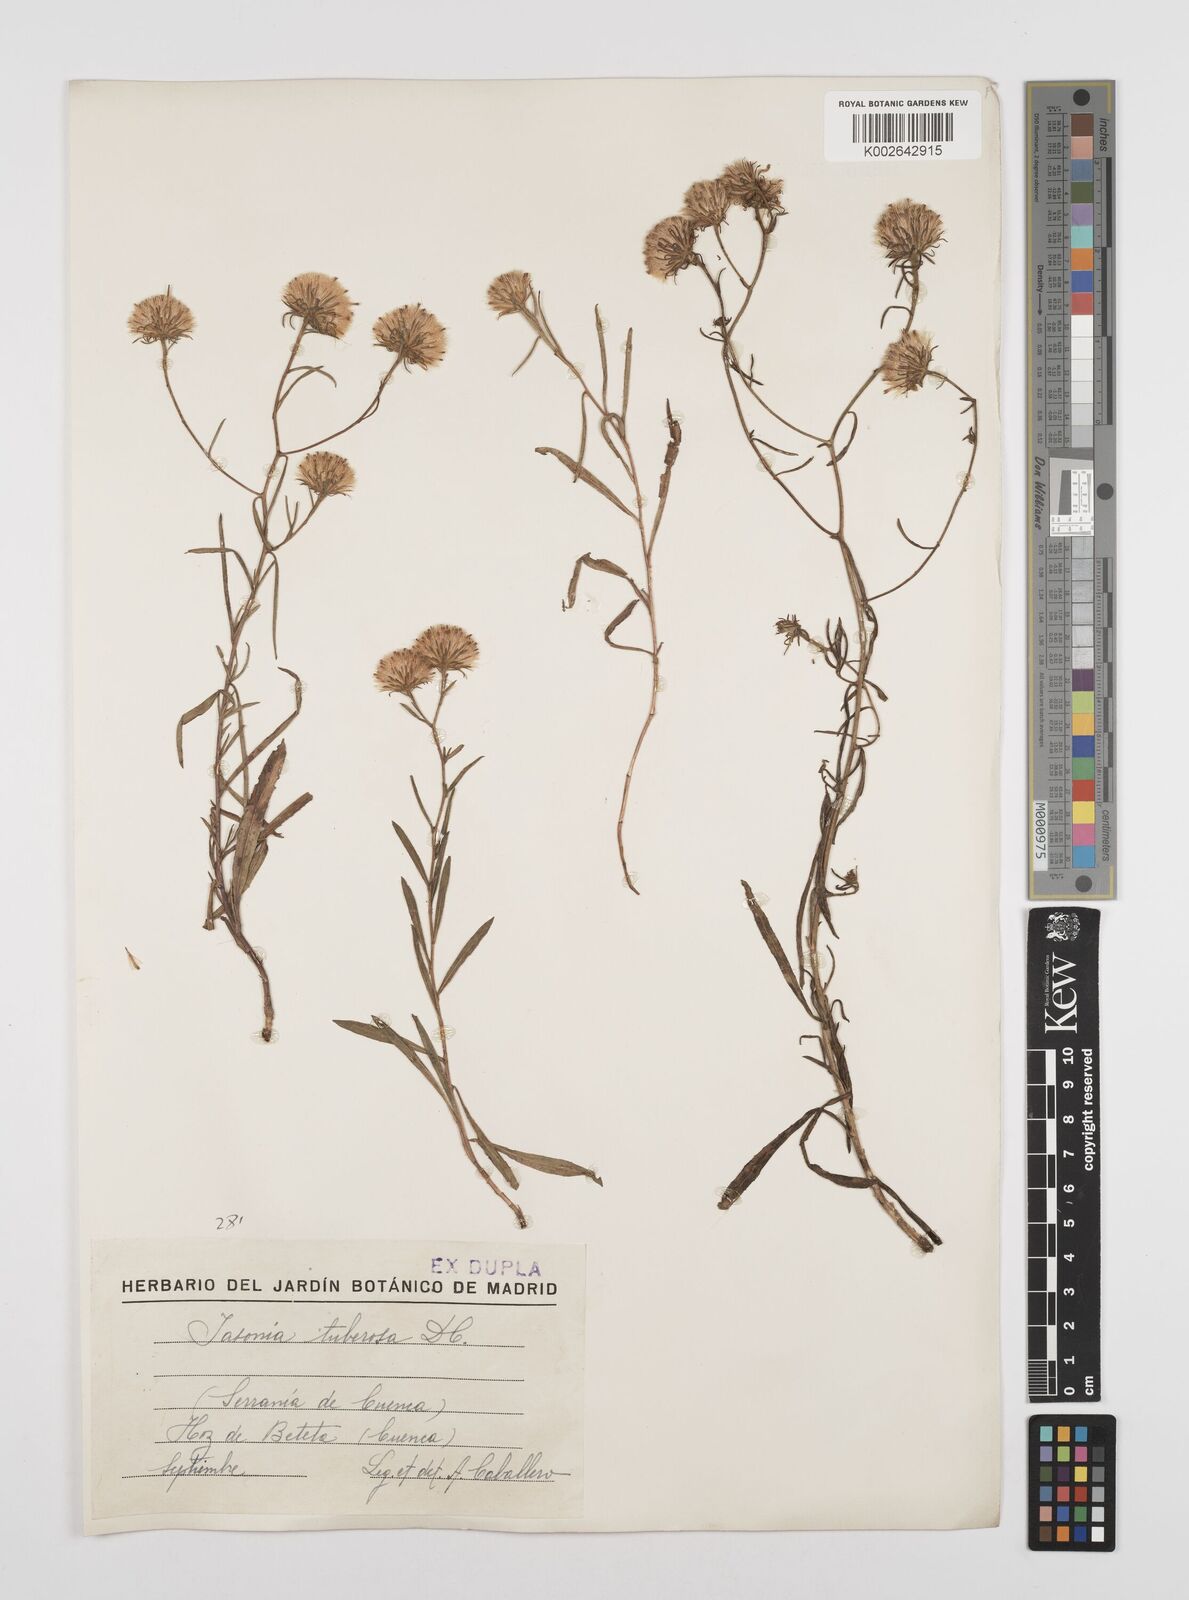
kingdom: Plantae
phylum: Tracheophyta
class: Magnoliopsida
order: Asterales
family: Asteraceae
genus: Jasonia
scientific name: Jasonia tuberosa
